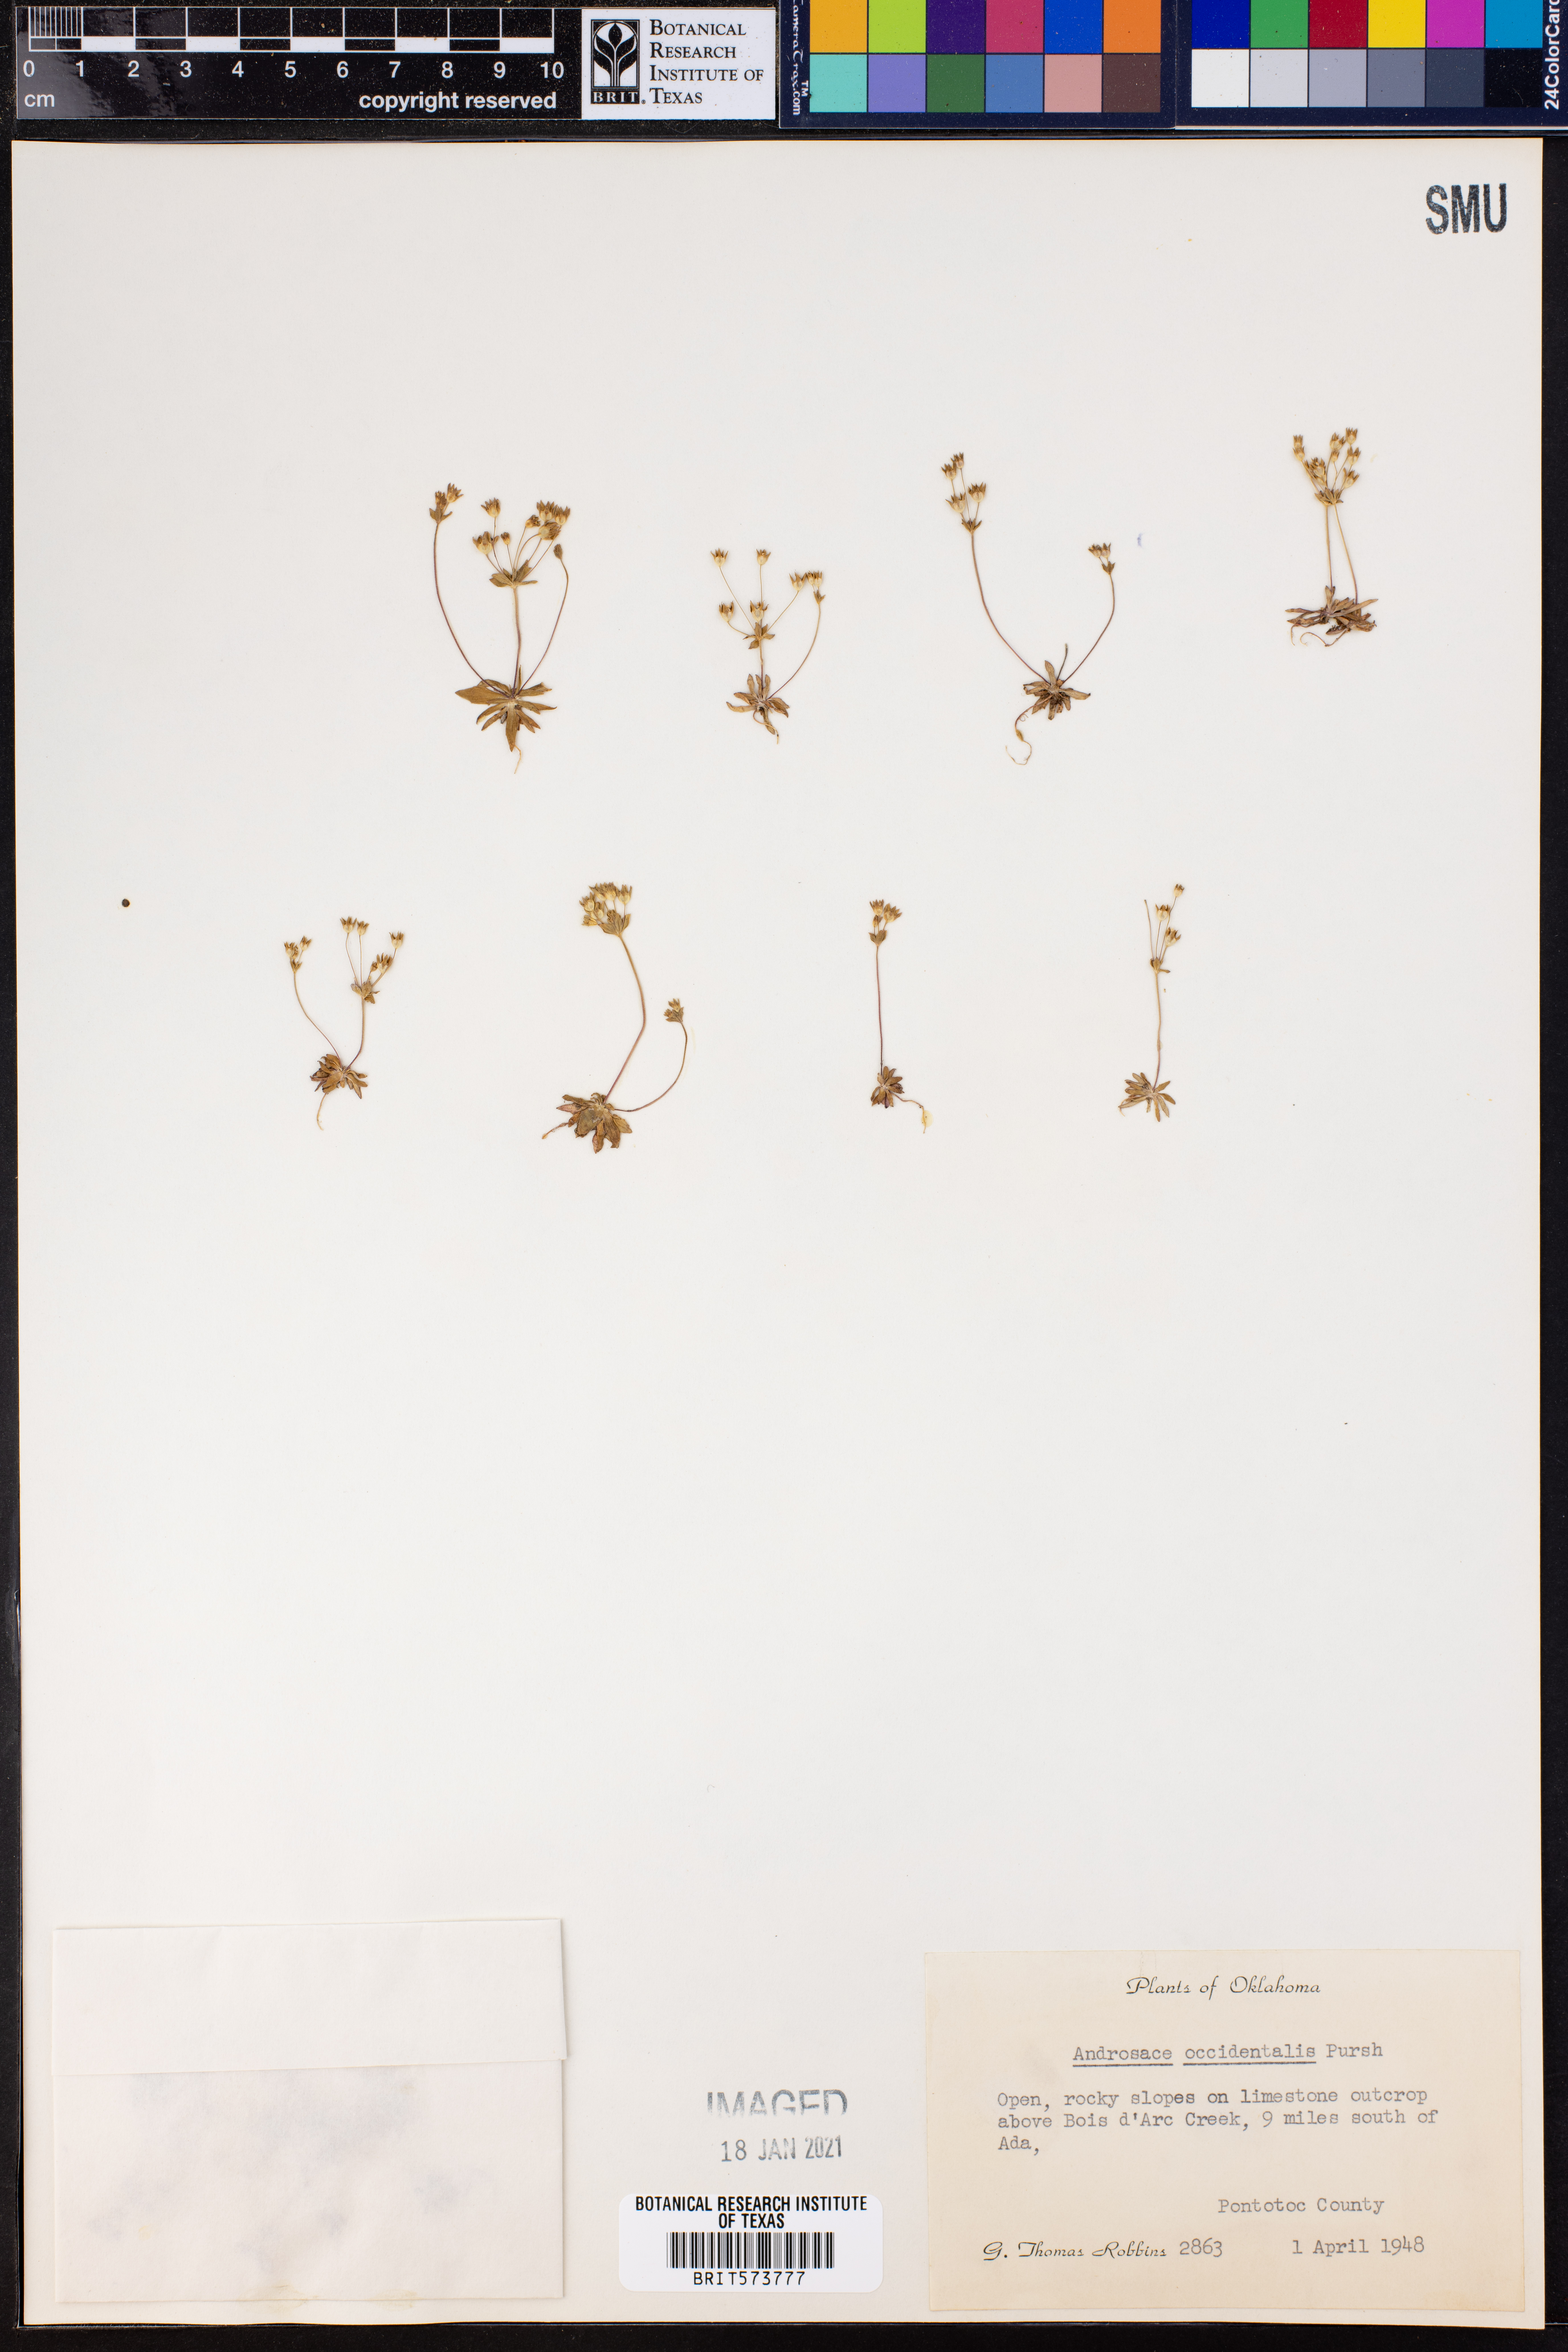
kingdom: Plantae
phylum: Tracheophyta
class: Magnoliopsida
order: Ericales
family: Primulaceae
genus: Androsace
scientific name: Androsace occidentalis
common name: West rock-jasmine
